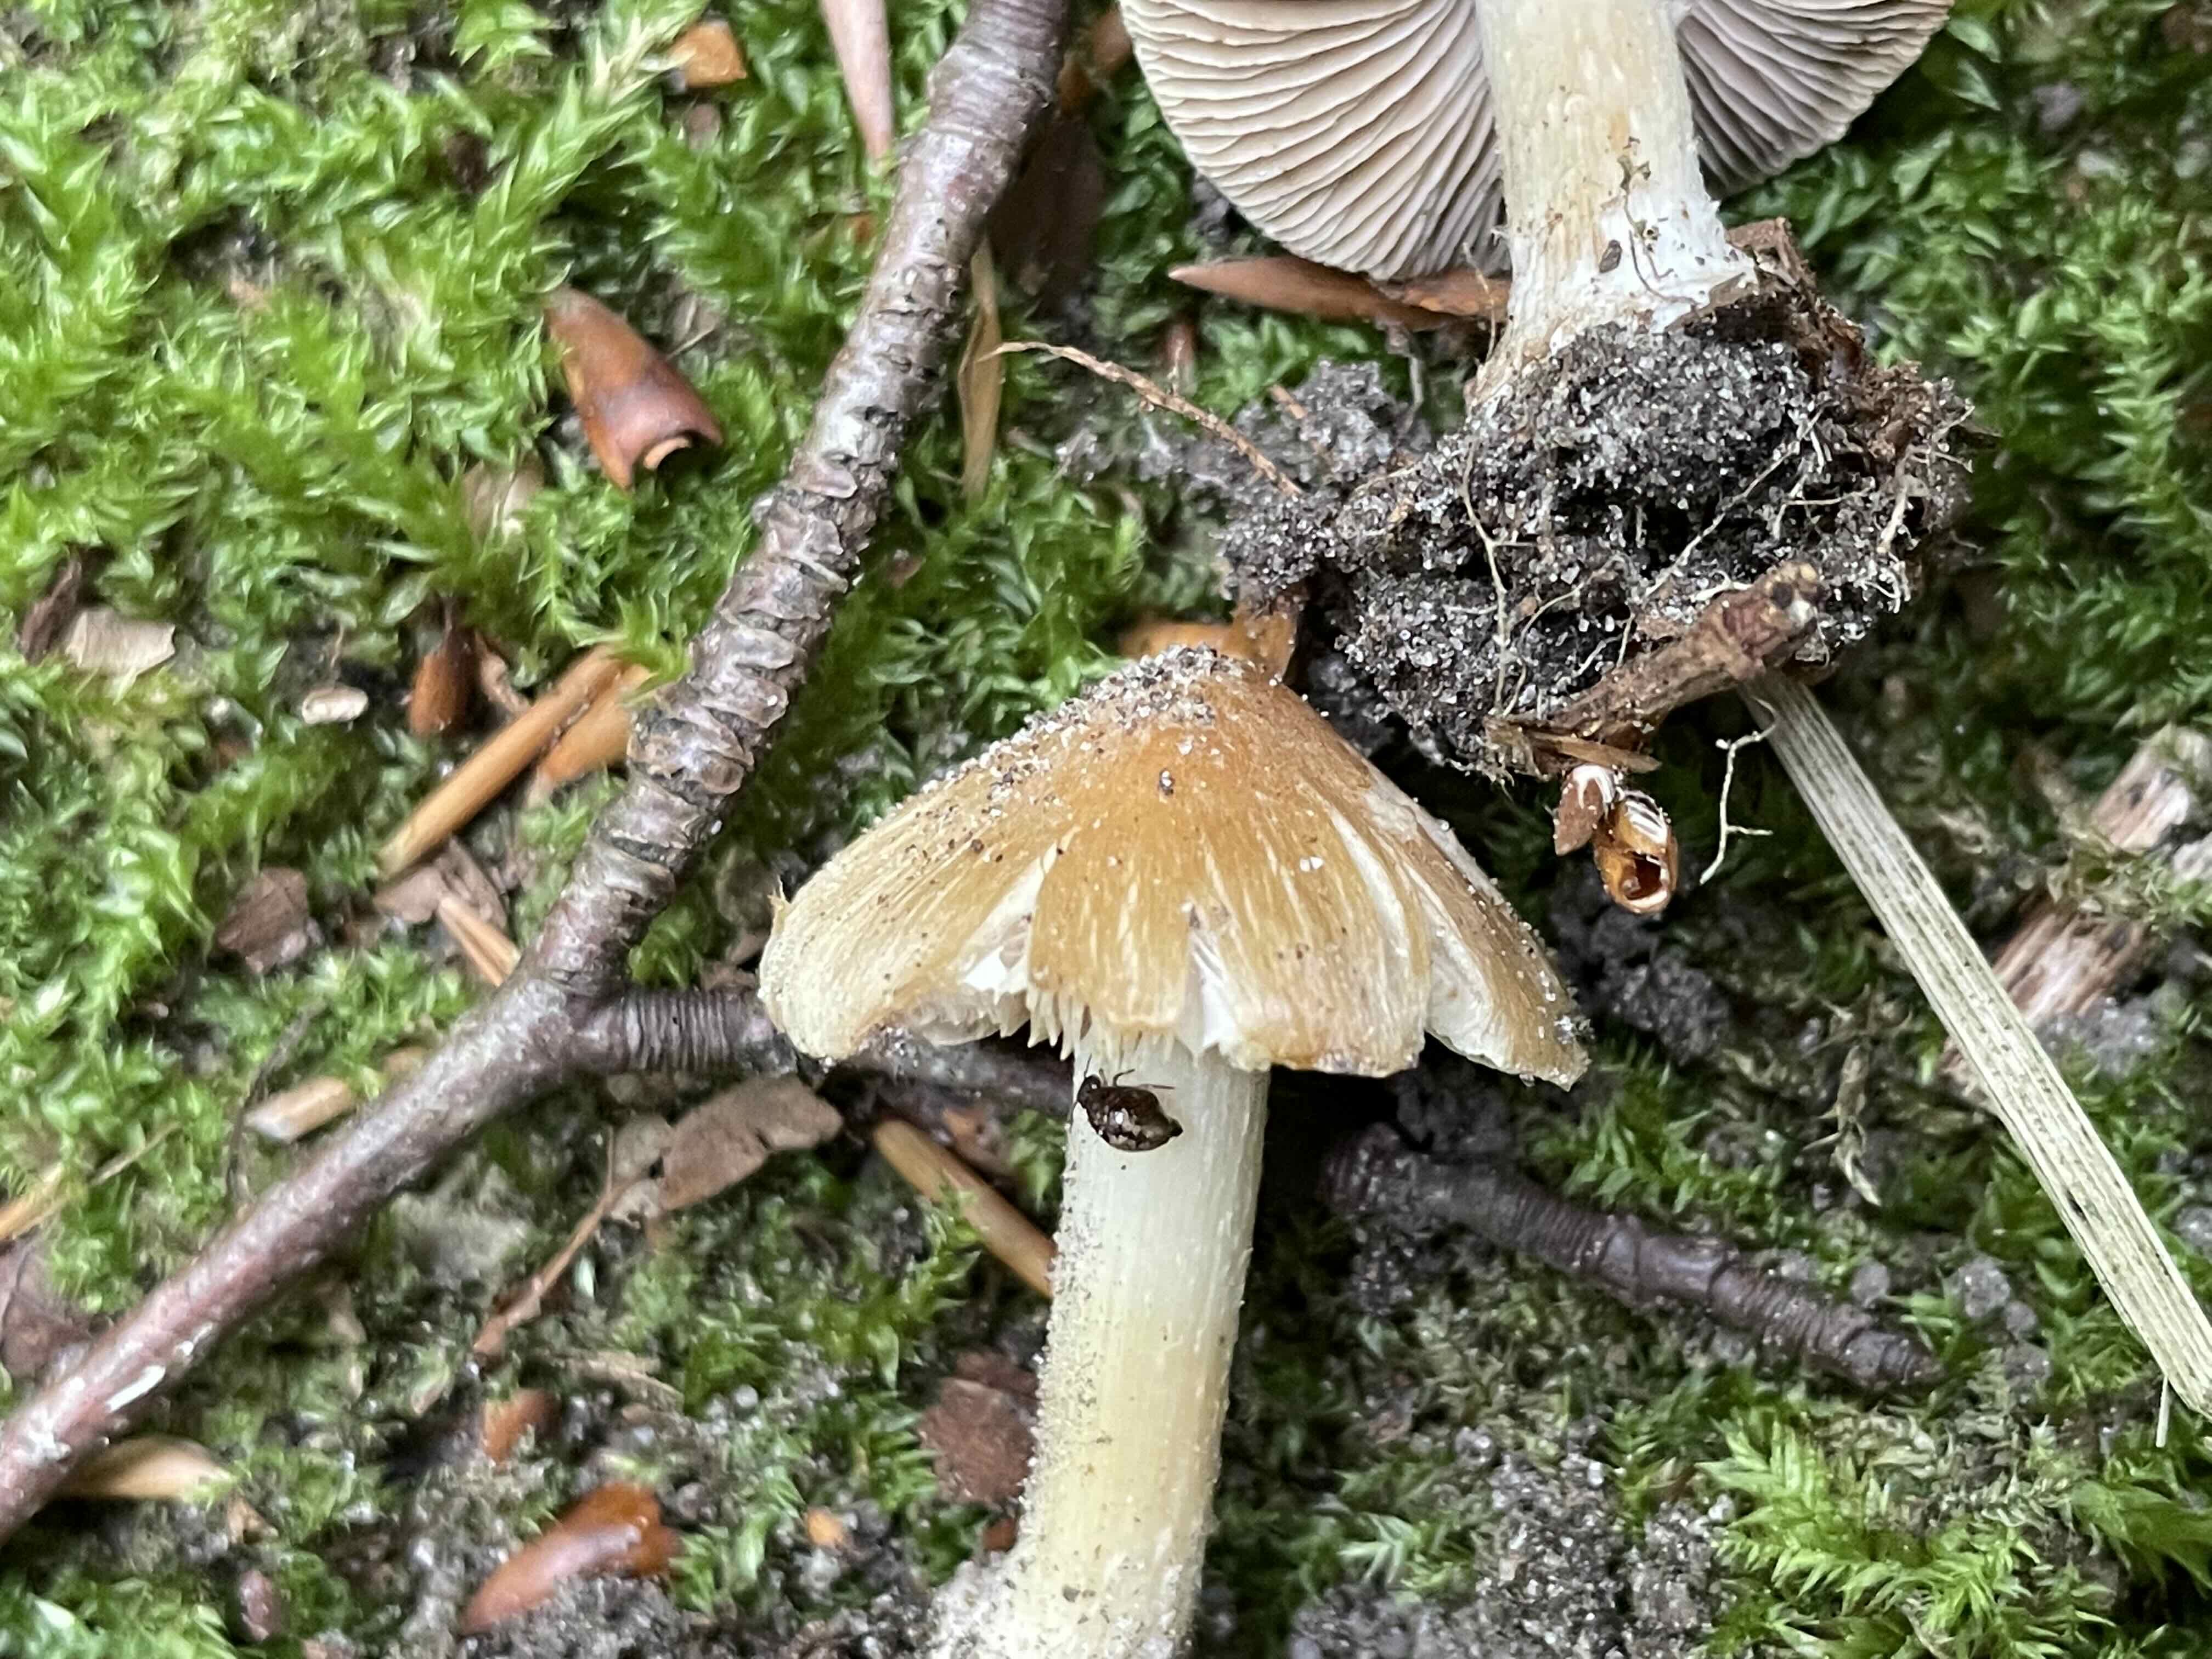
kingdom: Fungi
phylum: Basidiomycota
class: Agaricomycetes
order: Agaricales
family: Inocybaceae
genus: Inocybe
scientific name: Inocybe
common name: trævlhat
